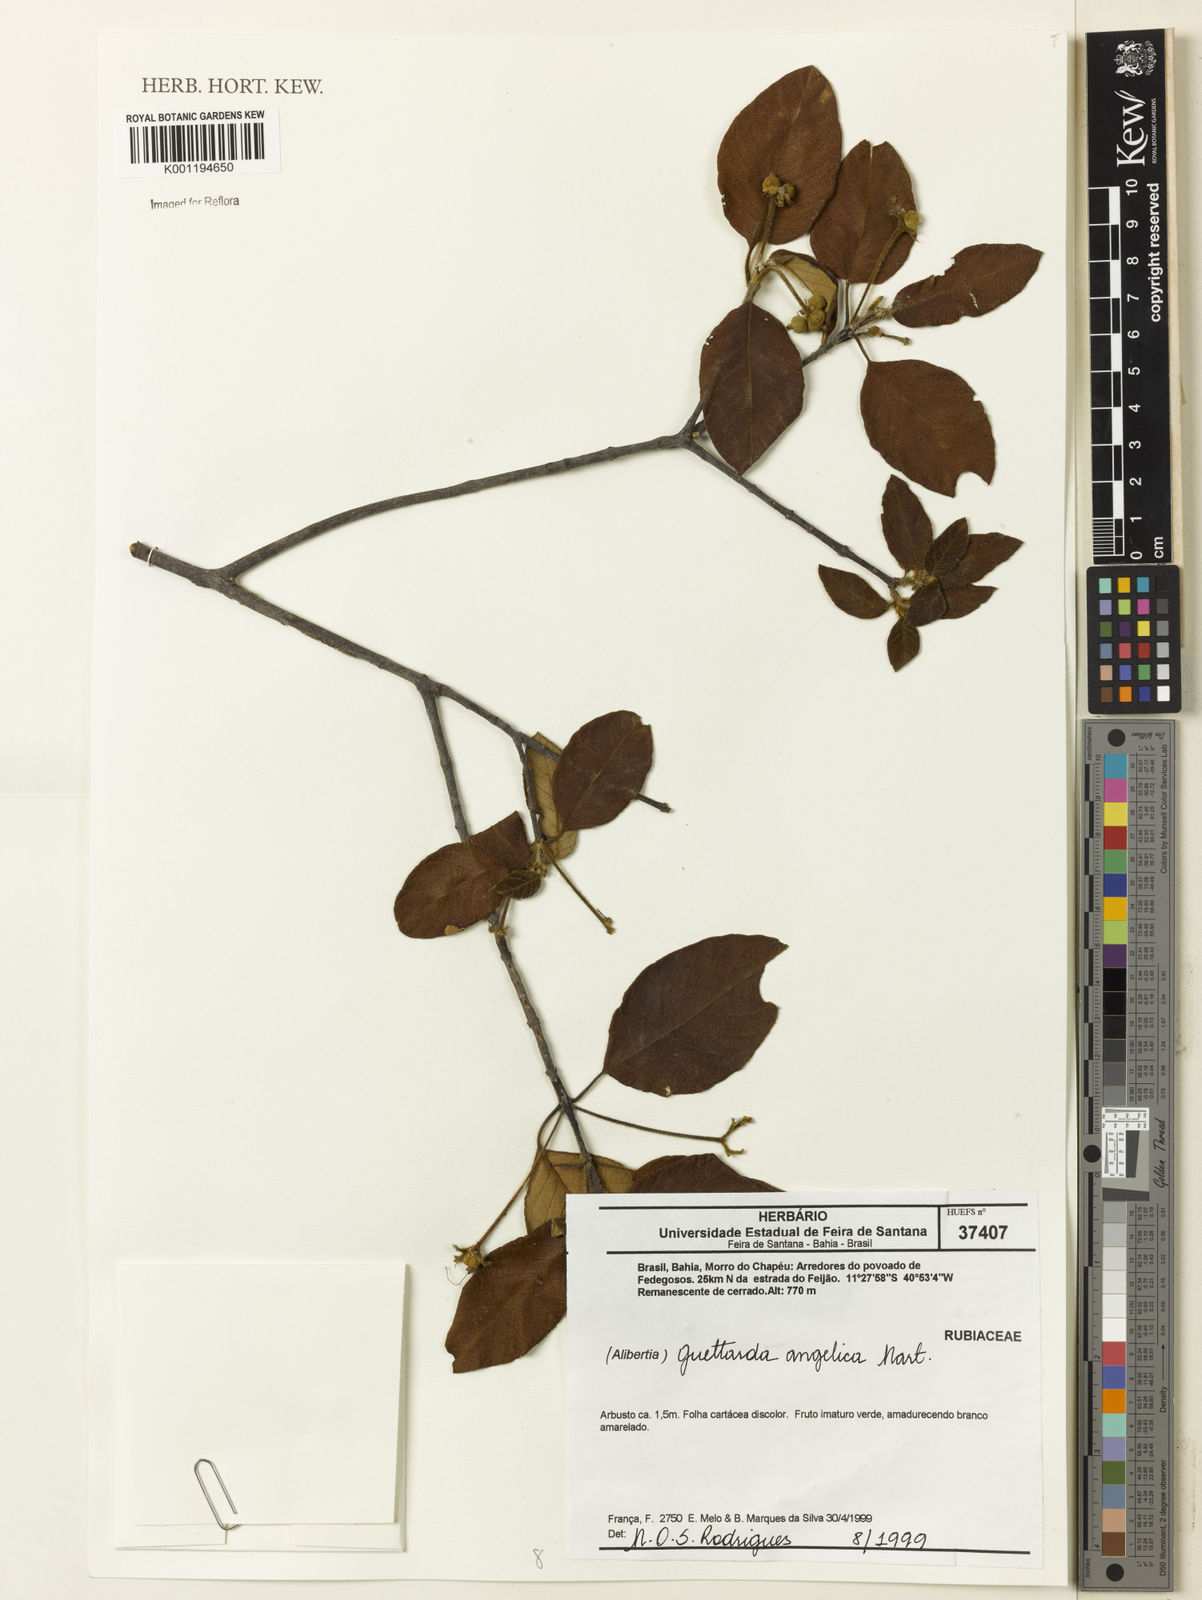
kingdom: Plantae
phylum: Tracheophyta
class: Magnoliopsida
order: Gentianales
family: Rubiaceae
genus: Guettarda
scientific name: Guettarda
